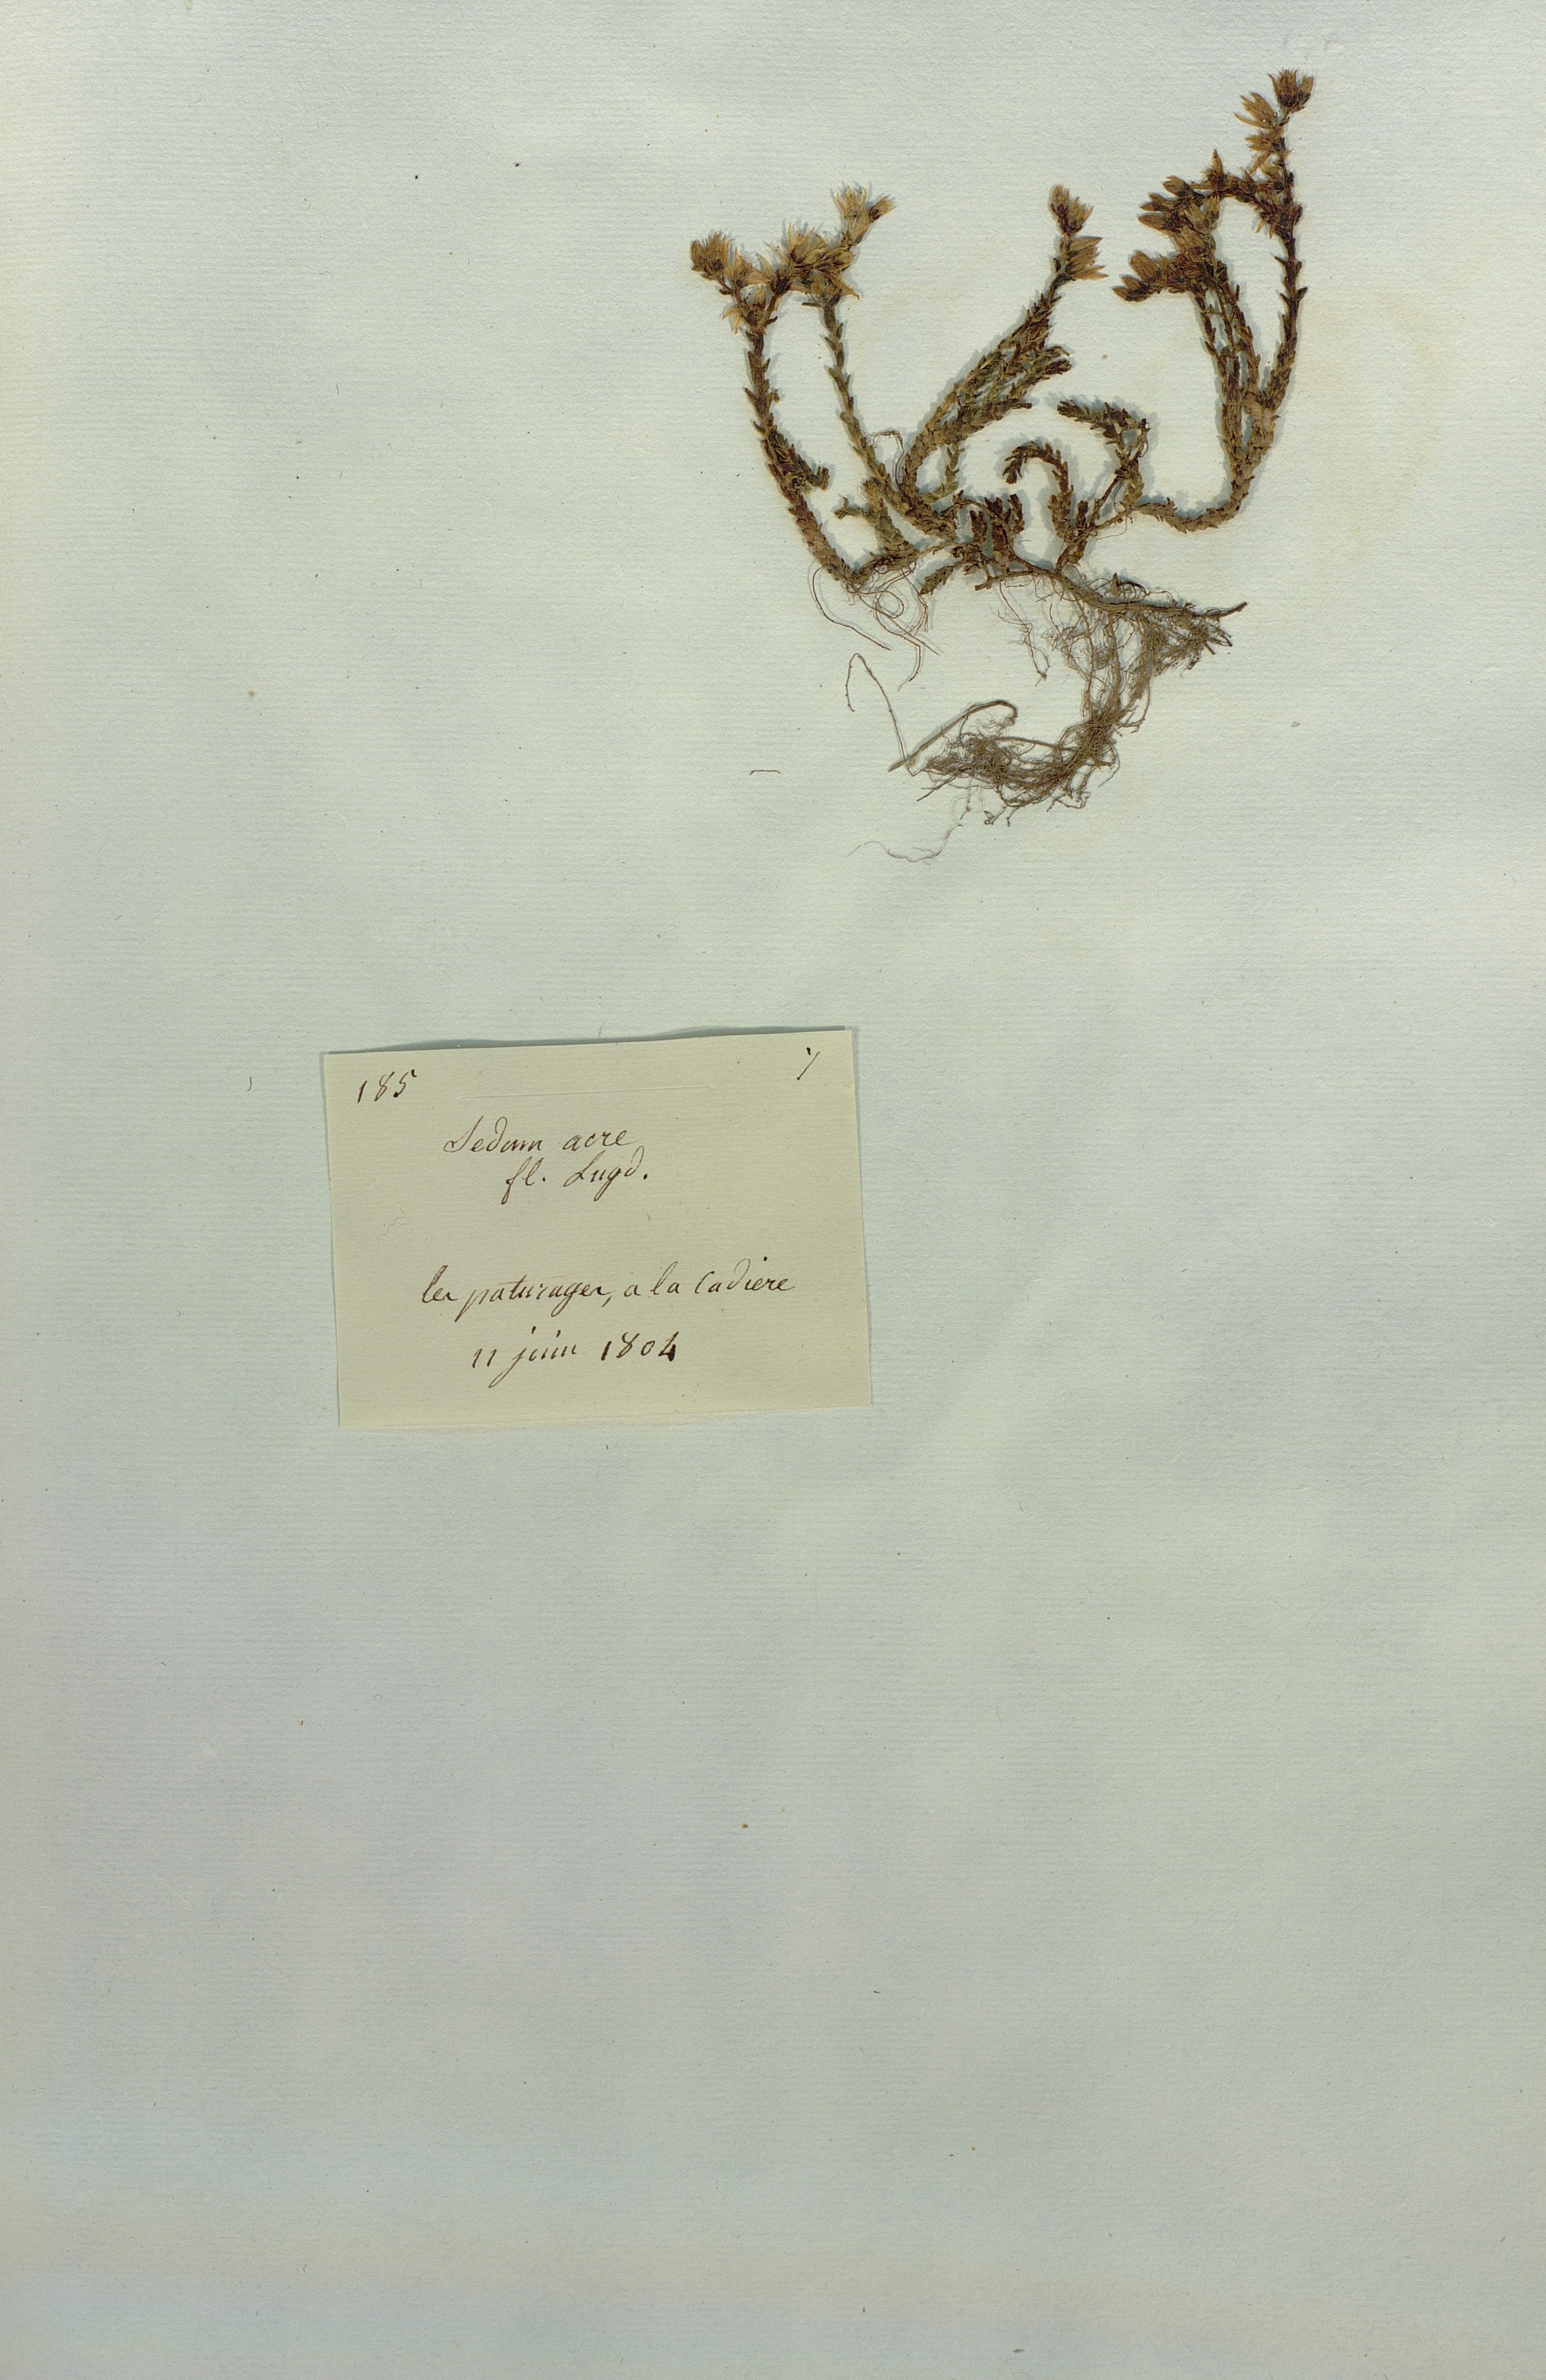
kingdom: Plantae
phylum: Tracheophyta
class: Magnoliopsida
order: Saxifragales
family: Crassulaceae
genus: Sedum
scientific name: Sedum acre
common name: Biting stonecrop
